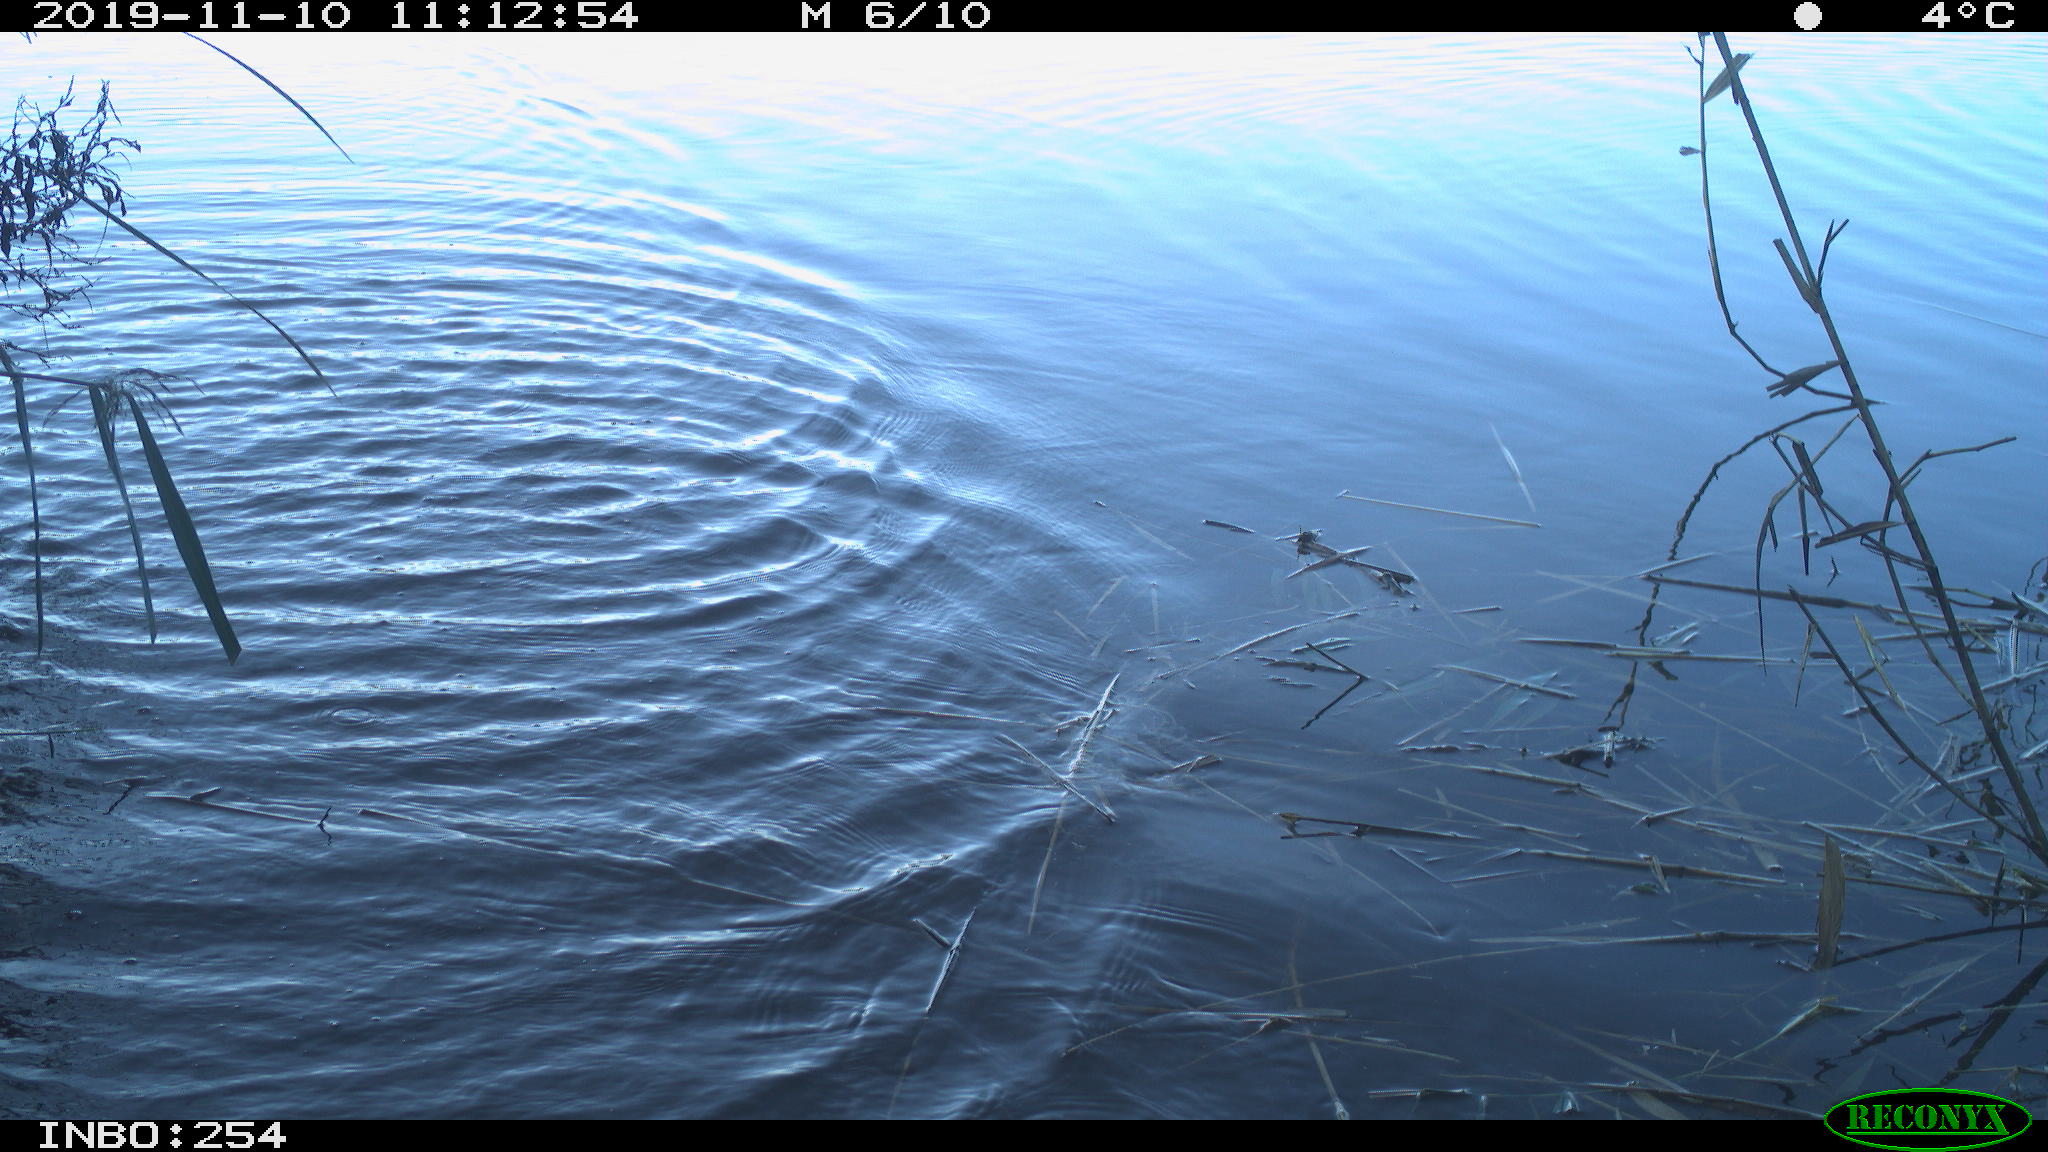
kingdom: Animalia
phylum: Chordata
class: Aves
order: Gruiformes
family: Rallidae
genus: Gallinula
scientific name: Gallinula chloropus
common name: Common moorhen
